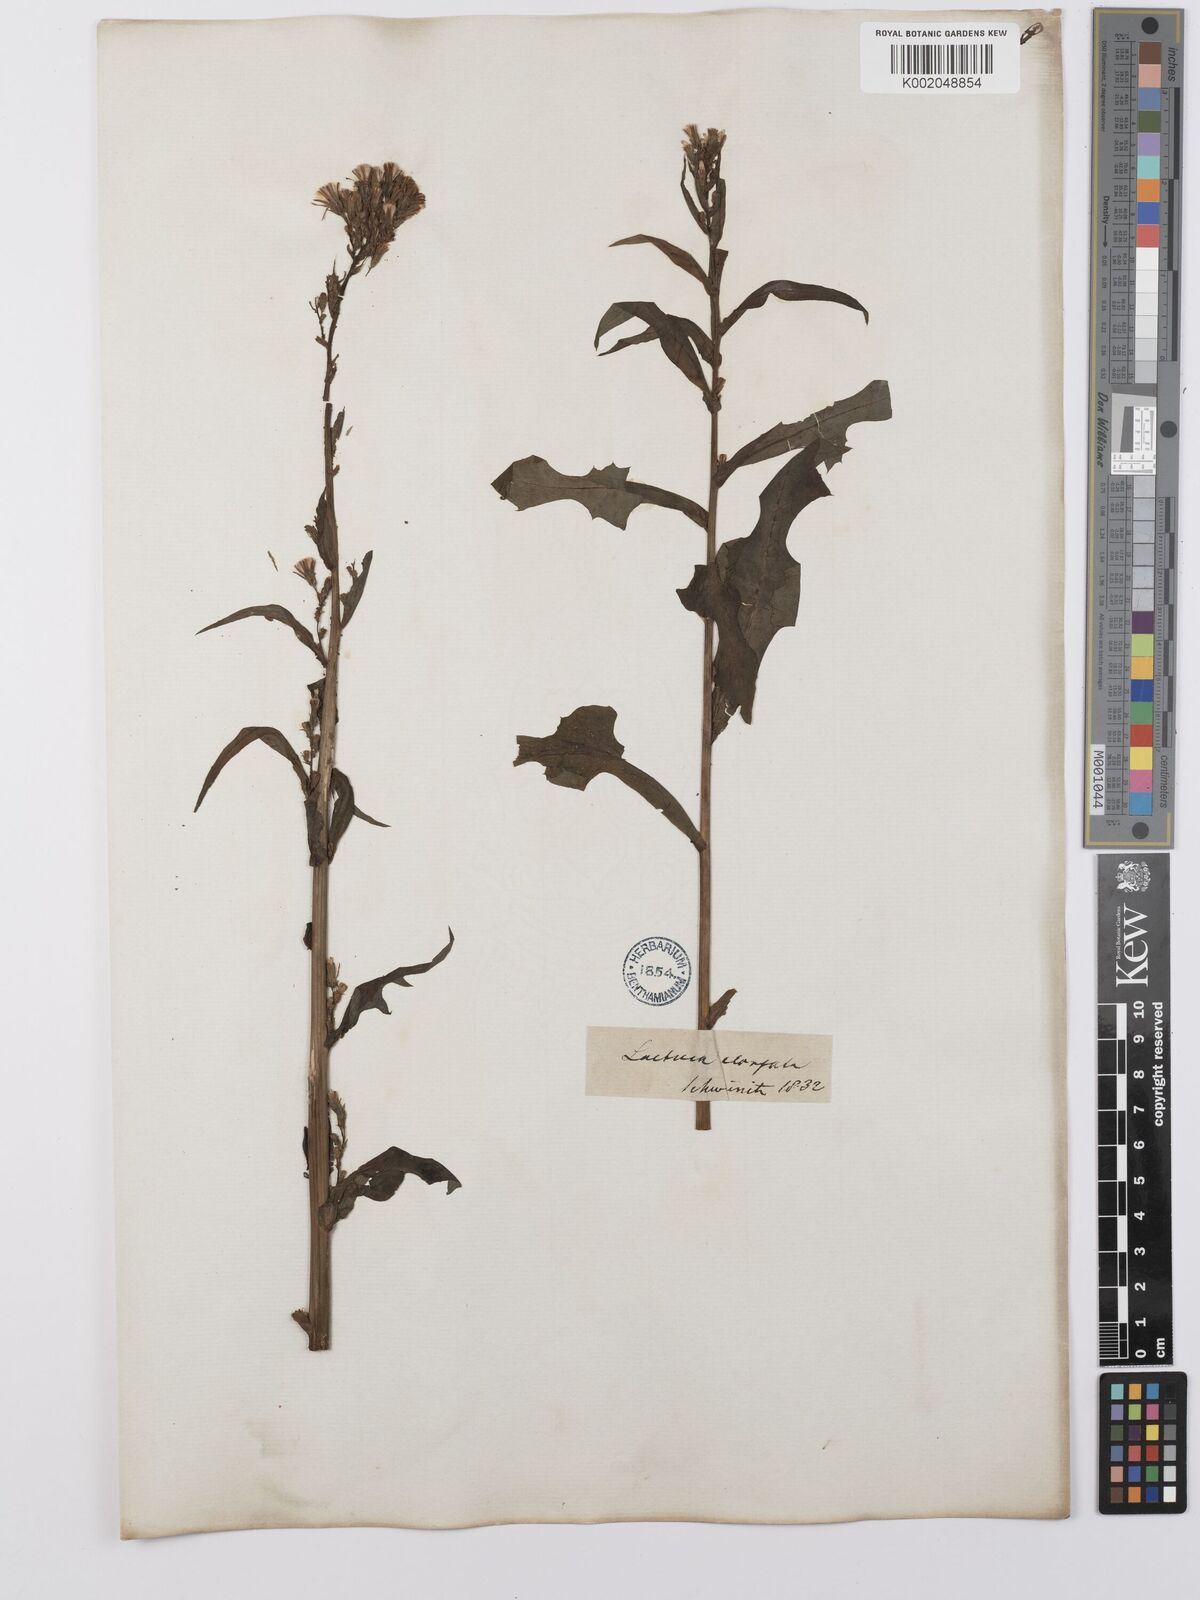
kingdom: Plantae
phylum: Tracheophyta
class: Magnoliopsida
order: Asterales
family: Asteraceae
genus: Lactuca
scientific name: Lactuca canadensis
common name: Canada lettuce
